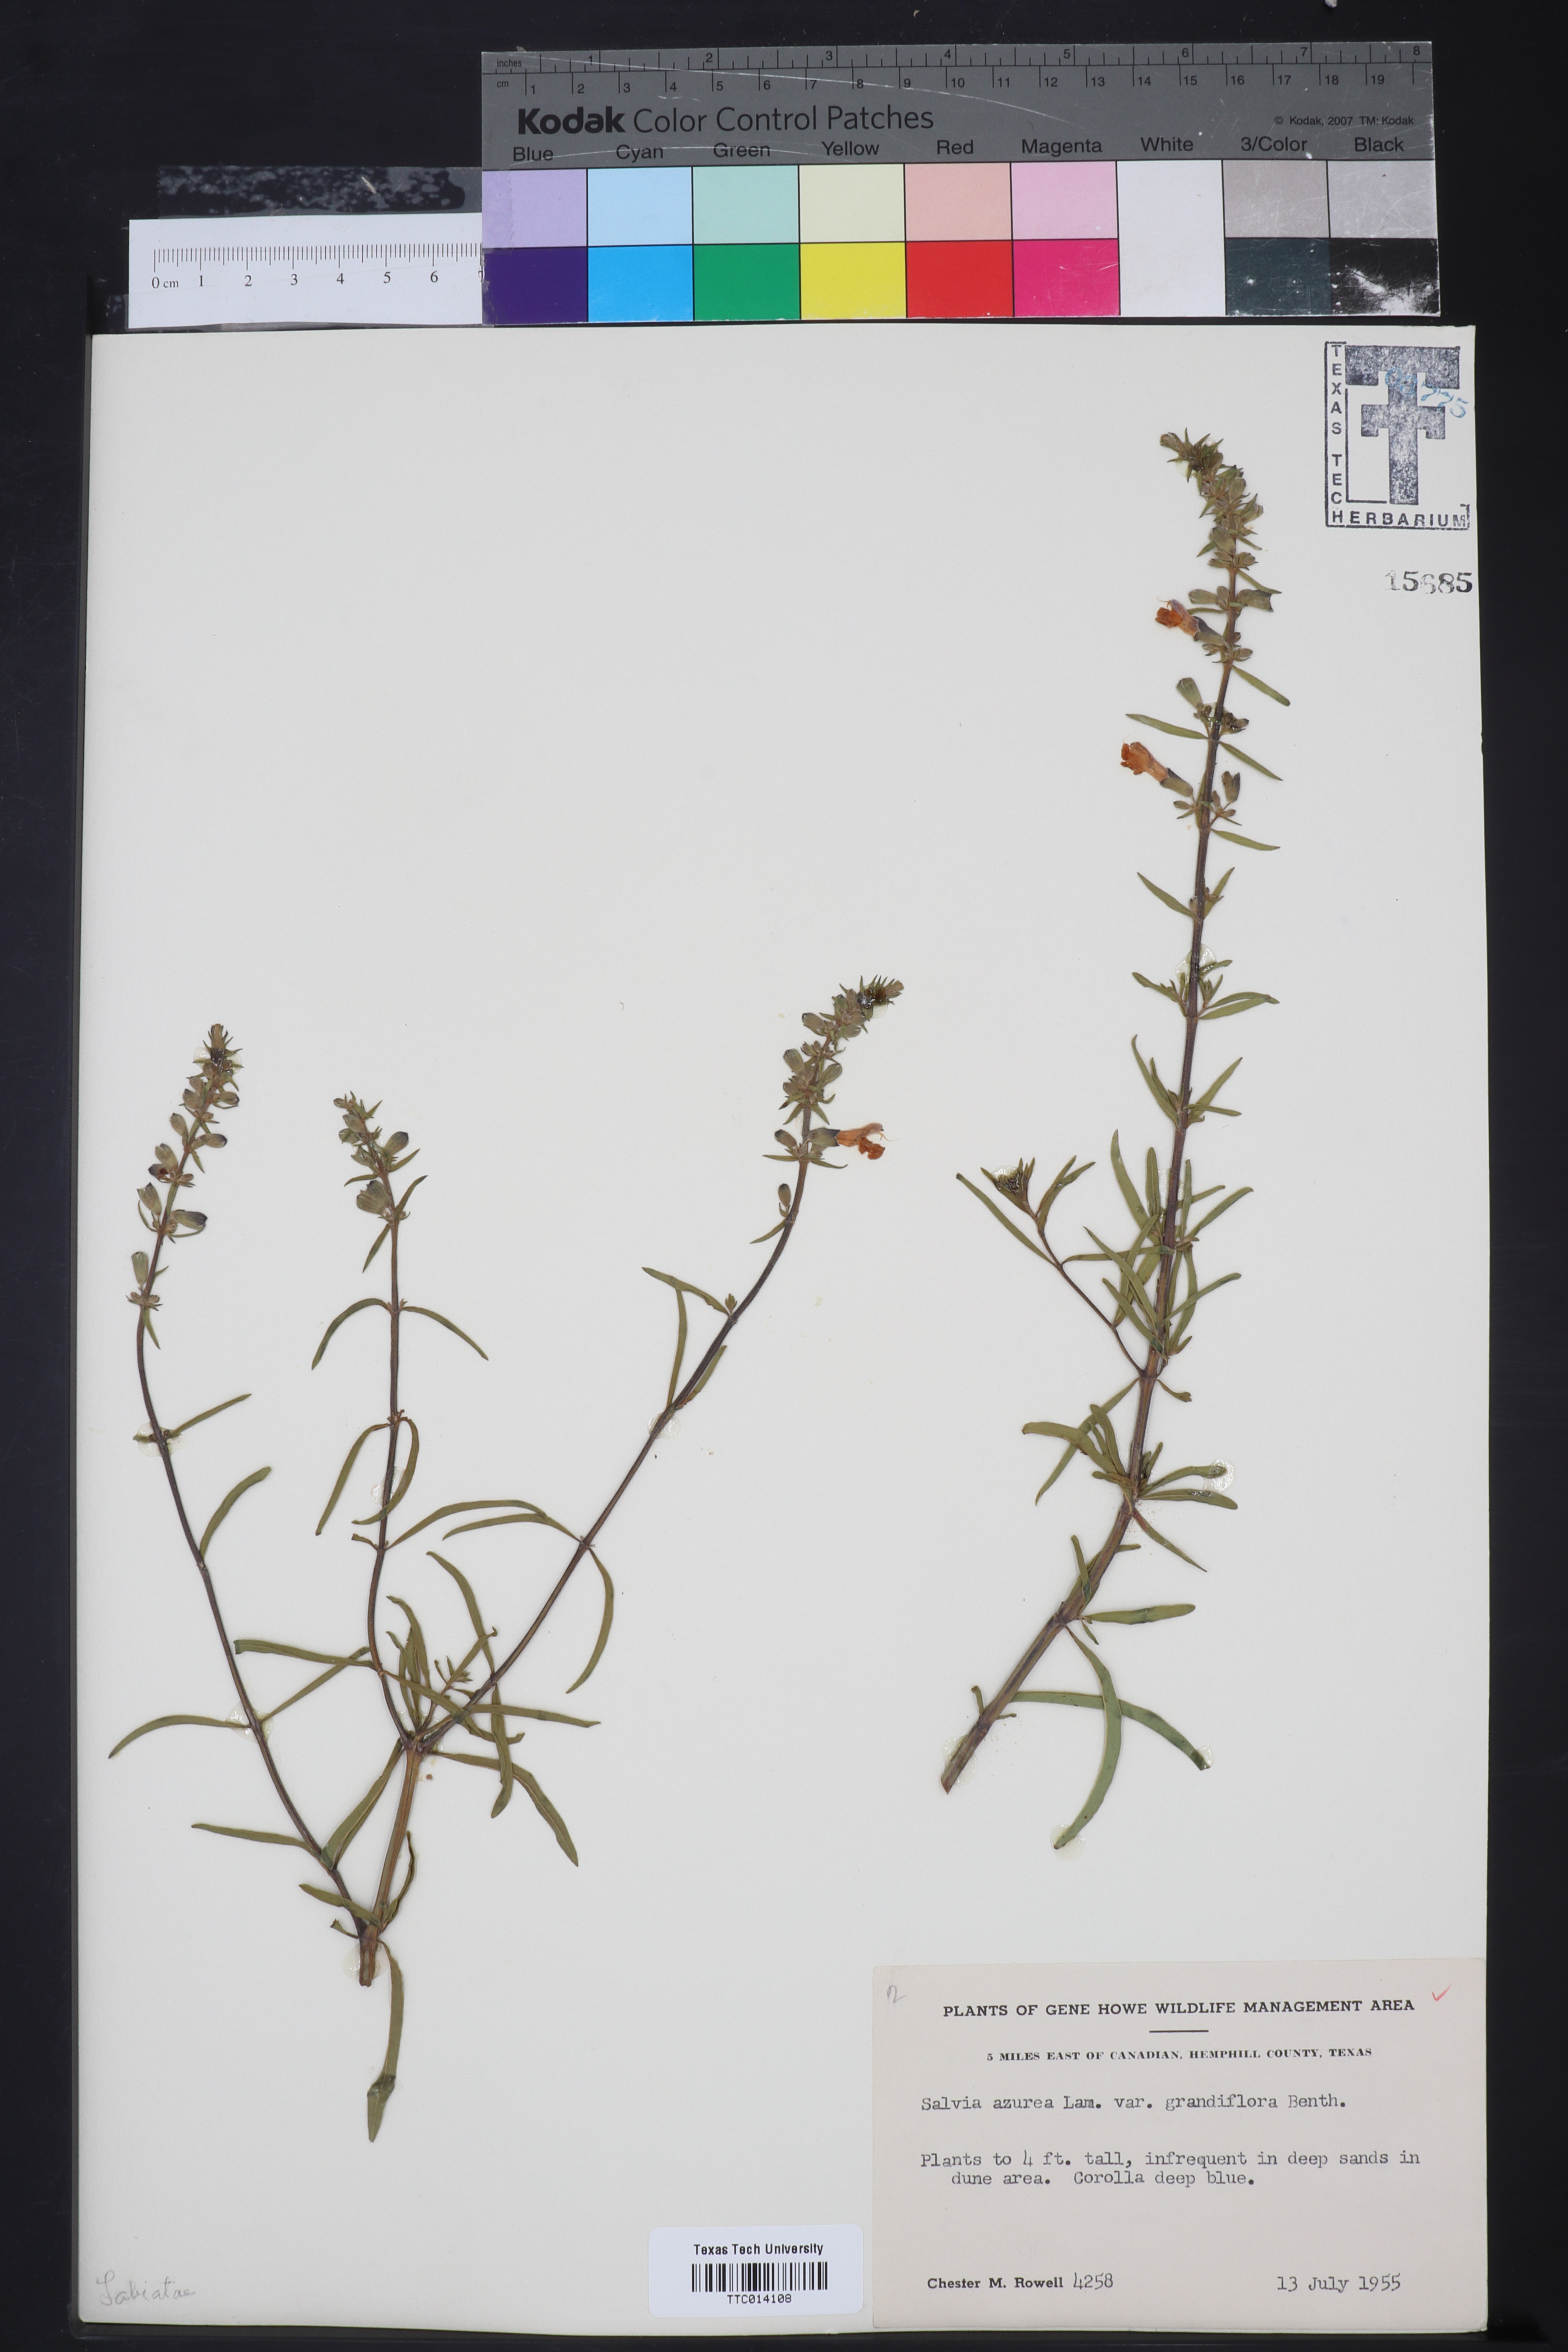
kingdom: Plantae
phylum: Tracheophyta
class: Magnoliopsida
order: Lamiales
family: Lamiaceae
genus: Salvia
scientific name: Salvia azurea
